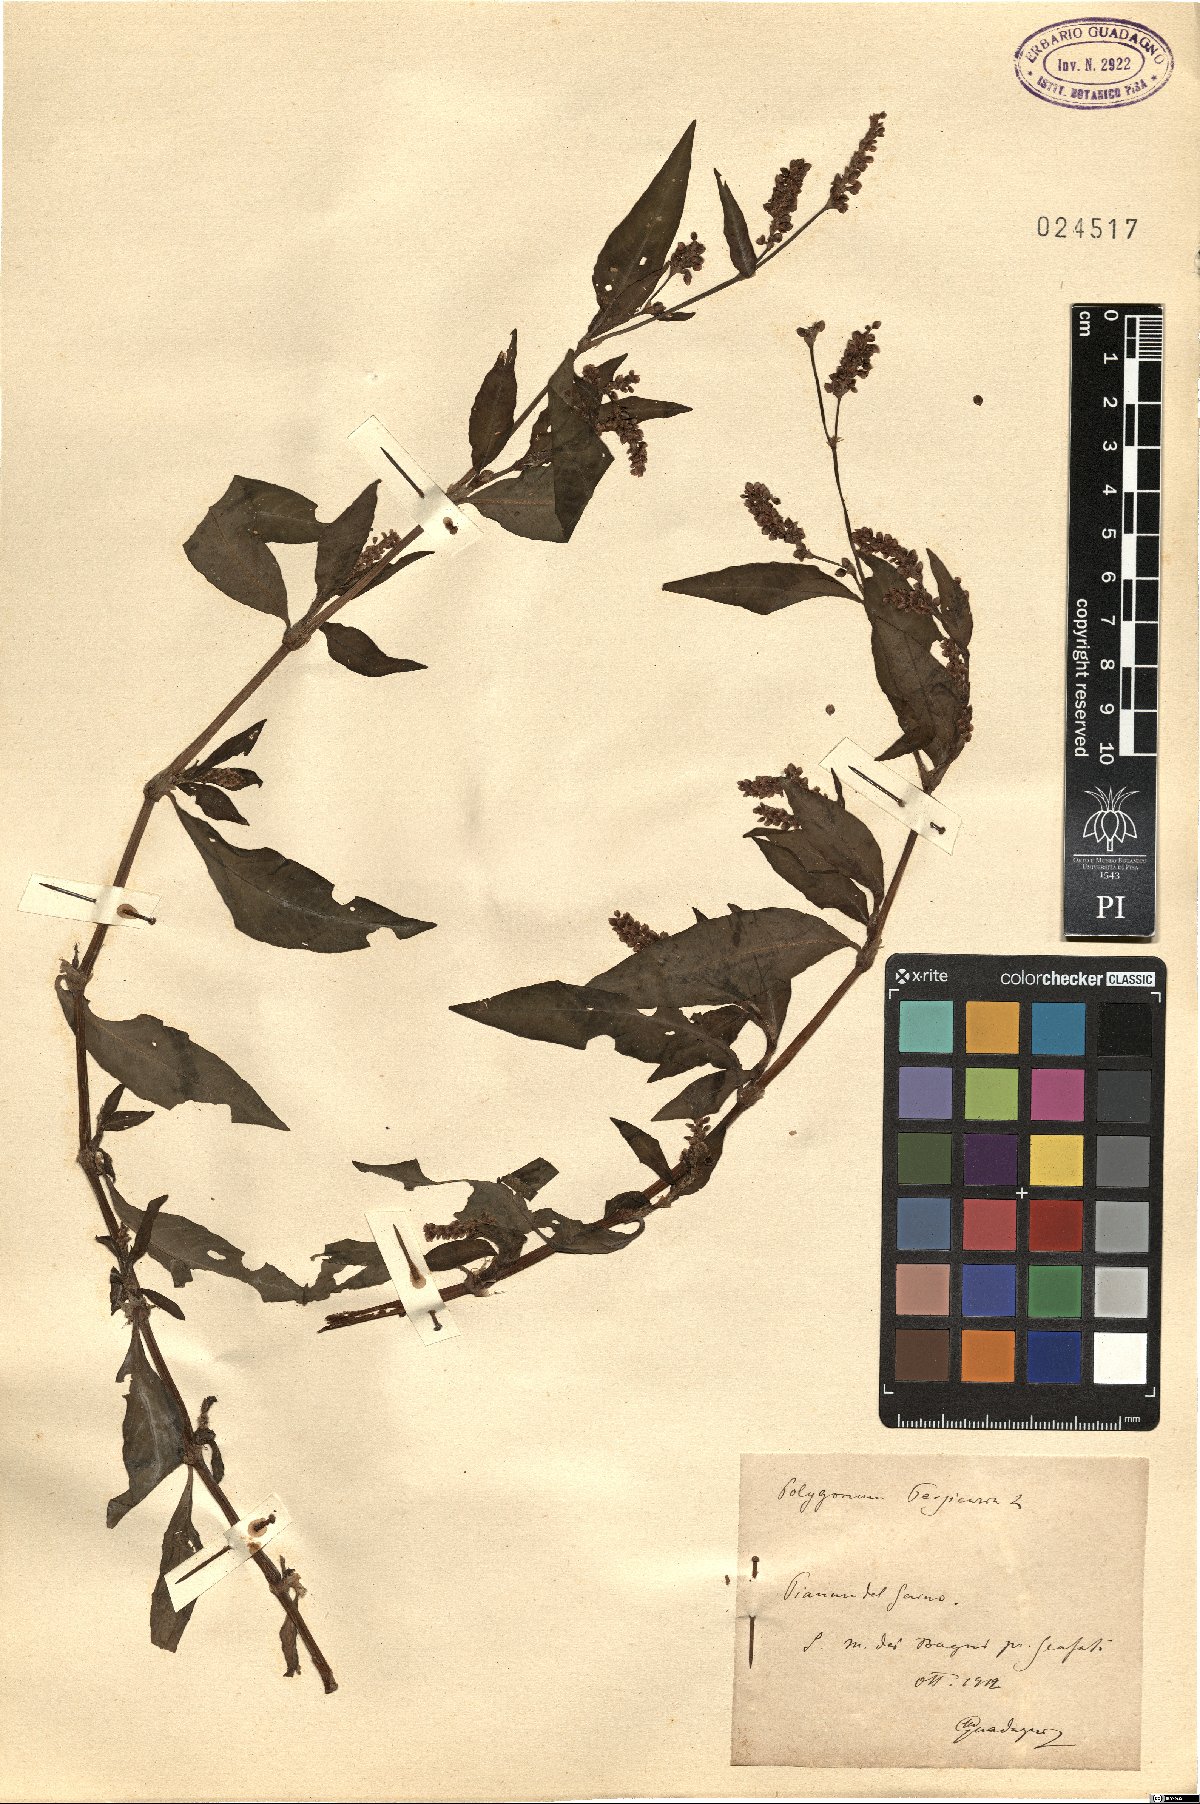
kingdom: Plantae
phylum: Tracheophyta
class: Magnoliopsida
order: Caryophyllales
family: Polygonaceae
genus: Persicaria
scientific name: Persicaria maculosa
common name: Redshank
